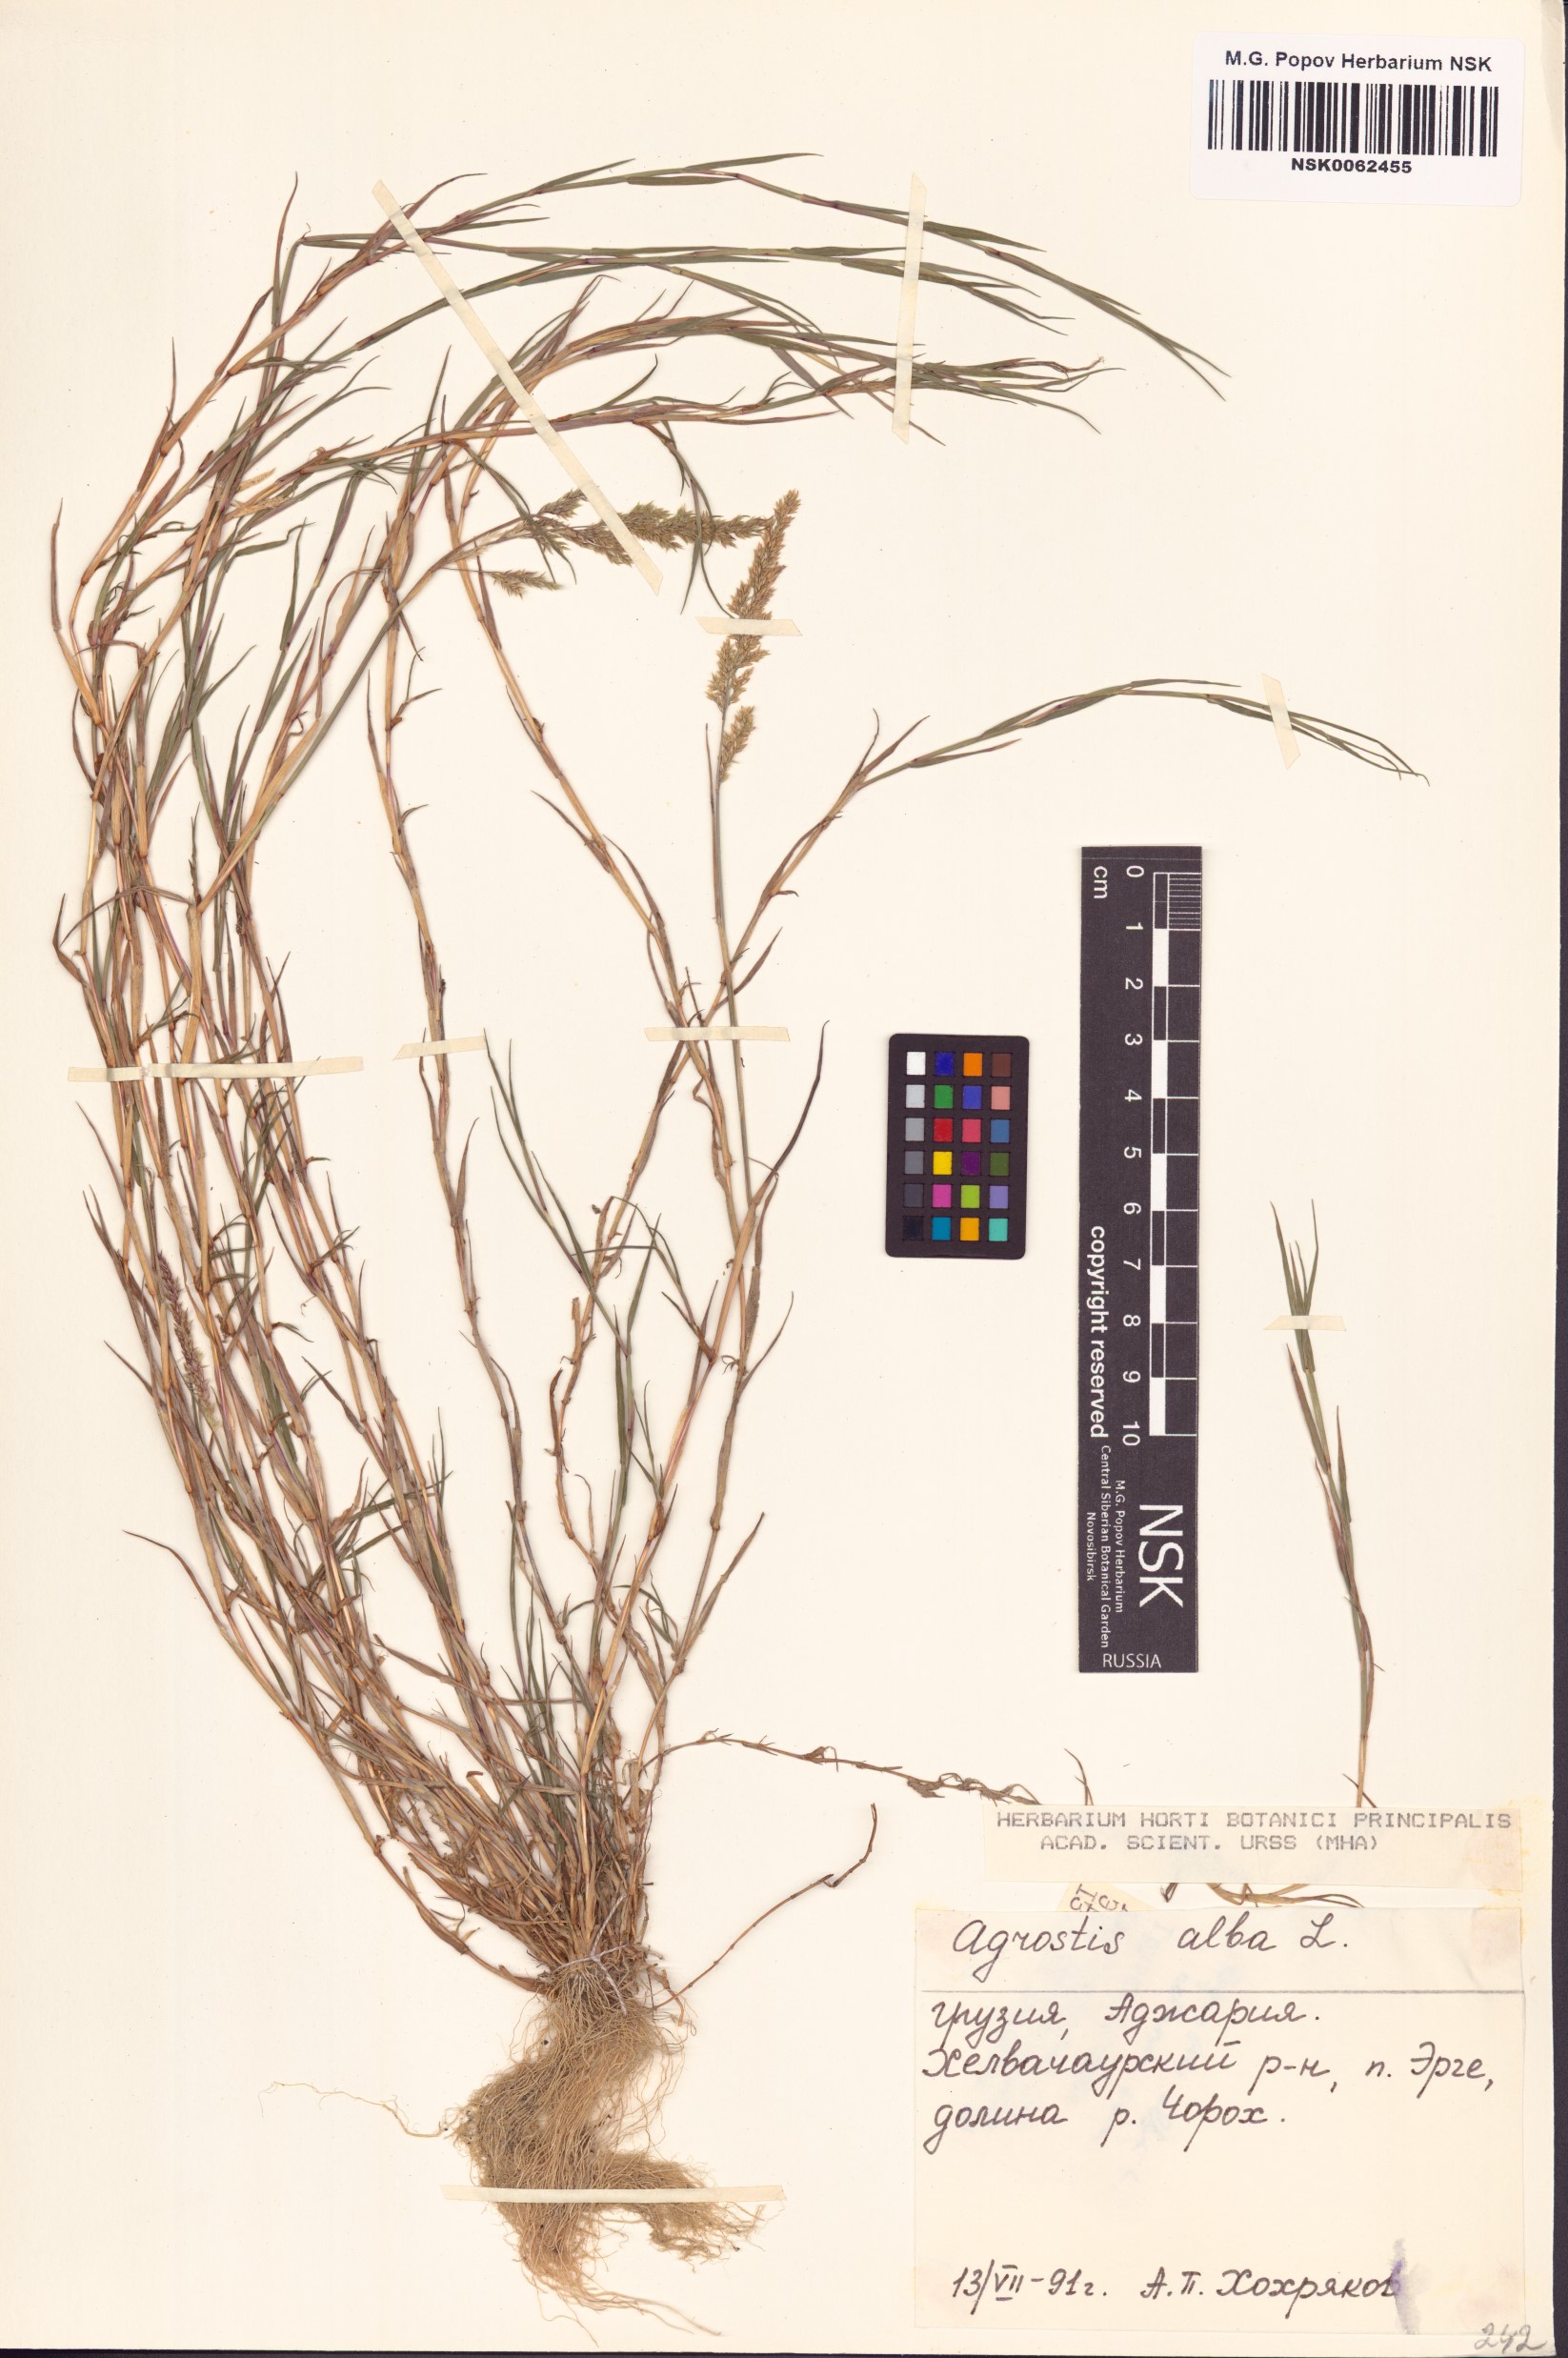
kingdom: Plantae
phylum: Tracheophyta
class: Liliopsida
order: Poales
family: Poaceae
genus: Poa
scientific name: Poa nemoralis
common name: Wood bluegrass
